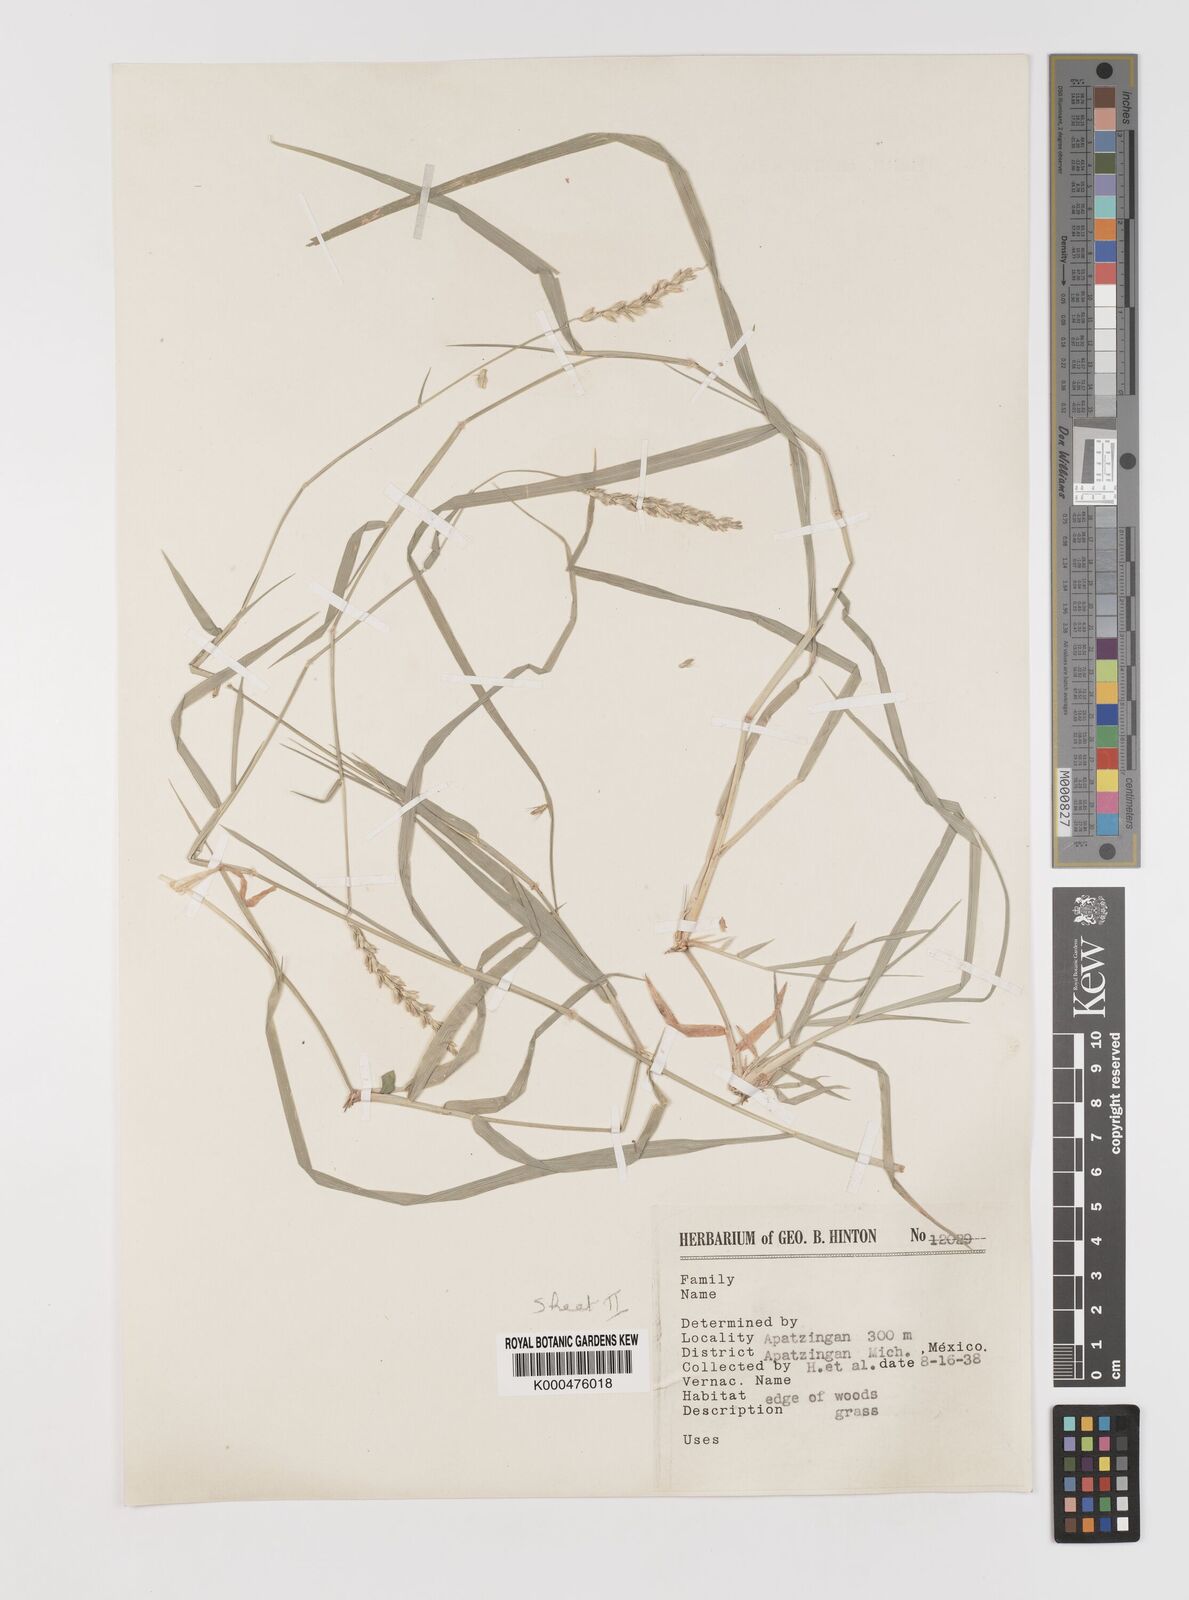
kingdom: Plantae
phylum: Tracheophyta
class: Liliopsida
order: Poales
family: Poaceae
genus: Hilaria
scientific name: Hilaria swallenii
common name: Swallen's curly-mesquite
